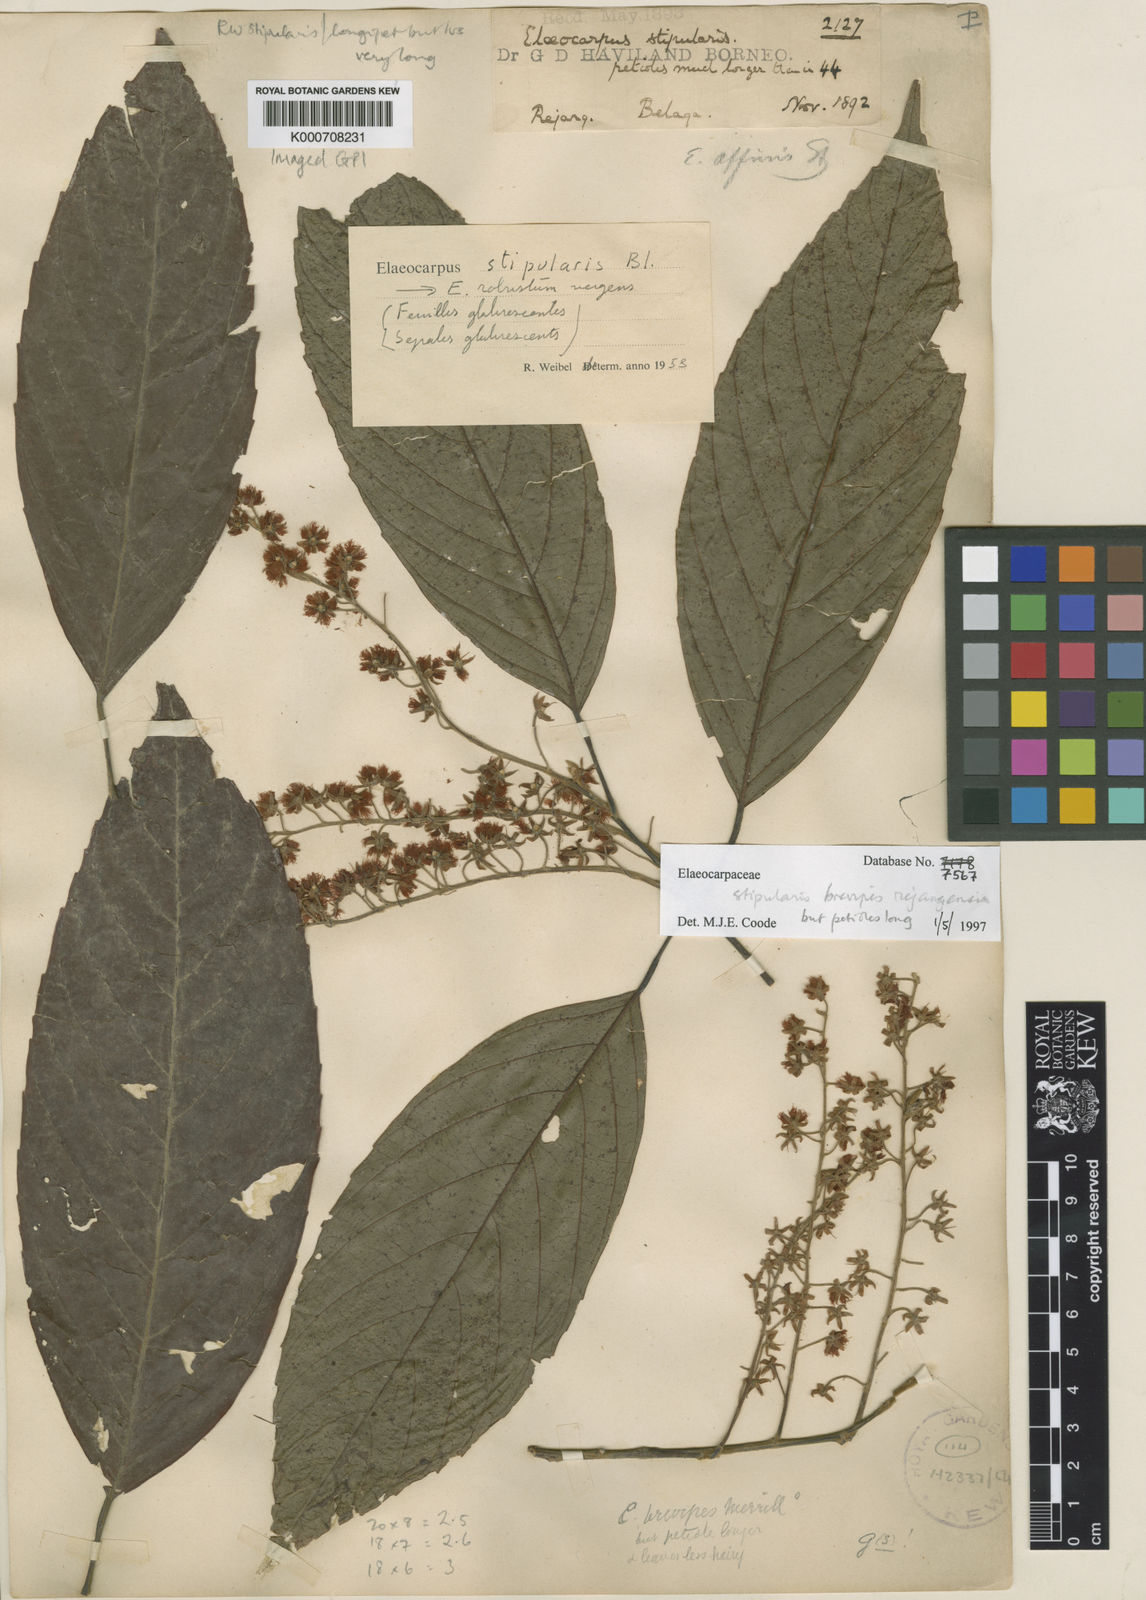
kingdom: Plantae
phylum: Tracheophyta
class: Magnoliopsida
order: Oxalidales
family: Elaeocarpaceae
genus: Elaeocarpus
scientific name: Elaeocarpus stipularis
